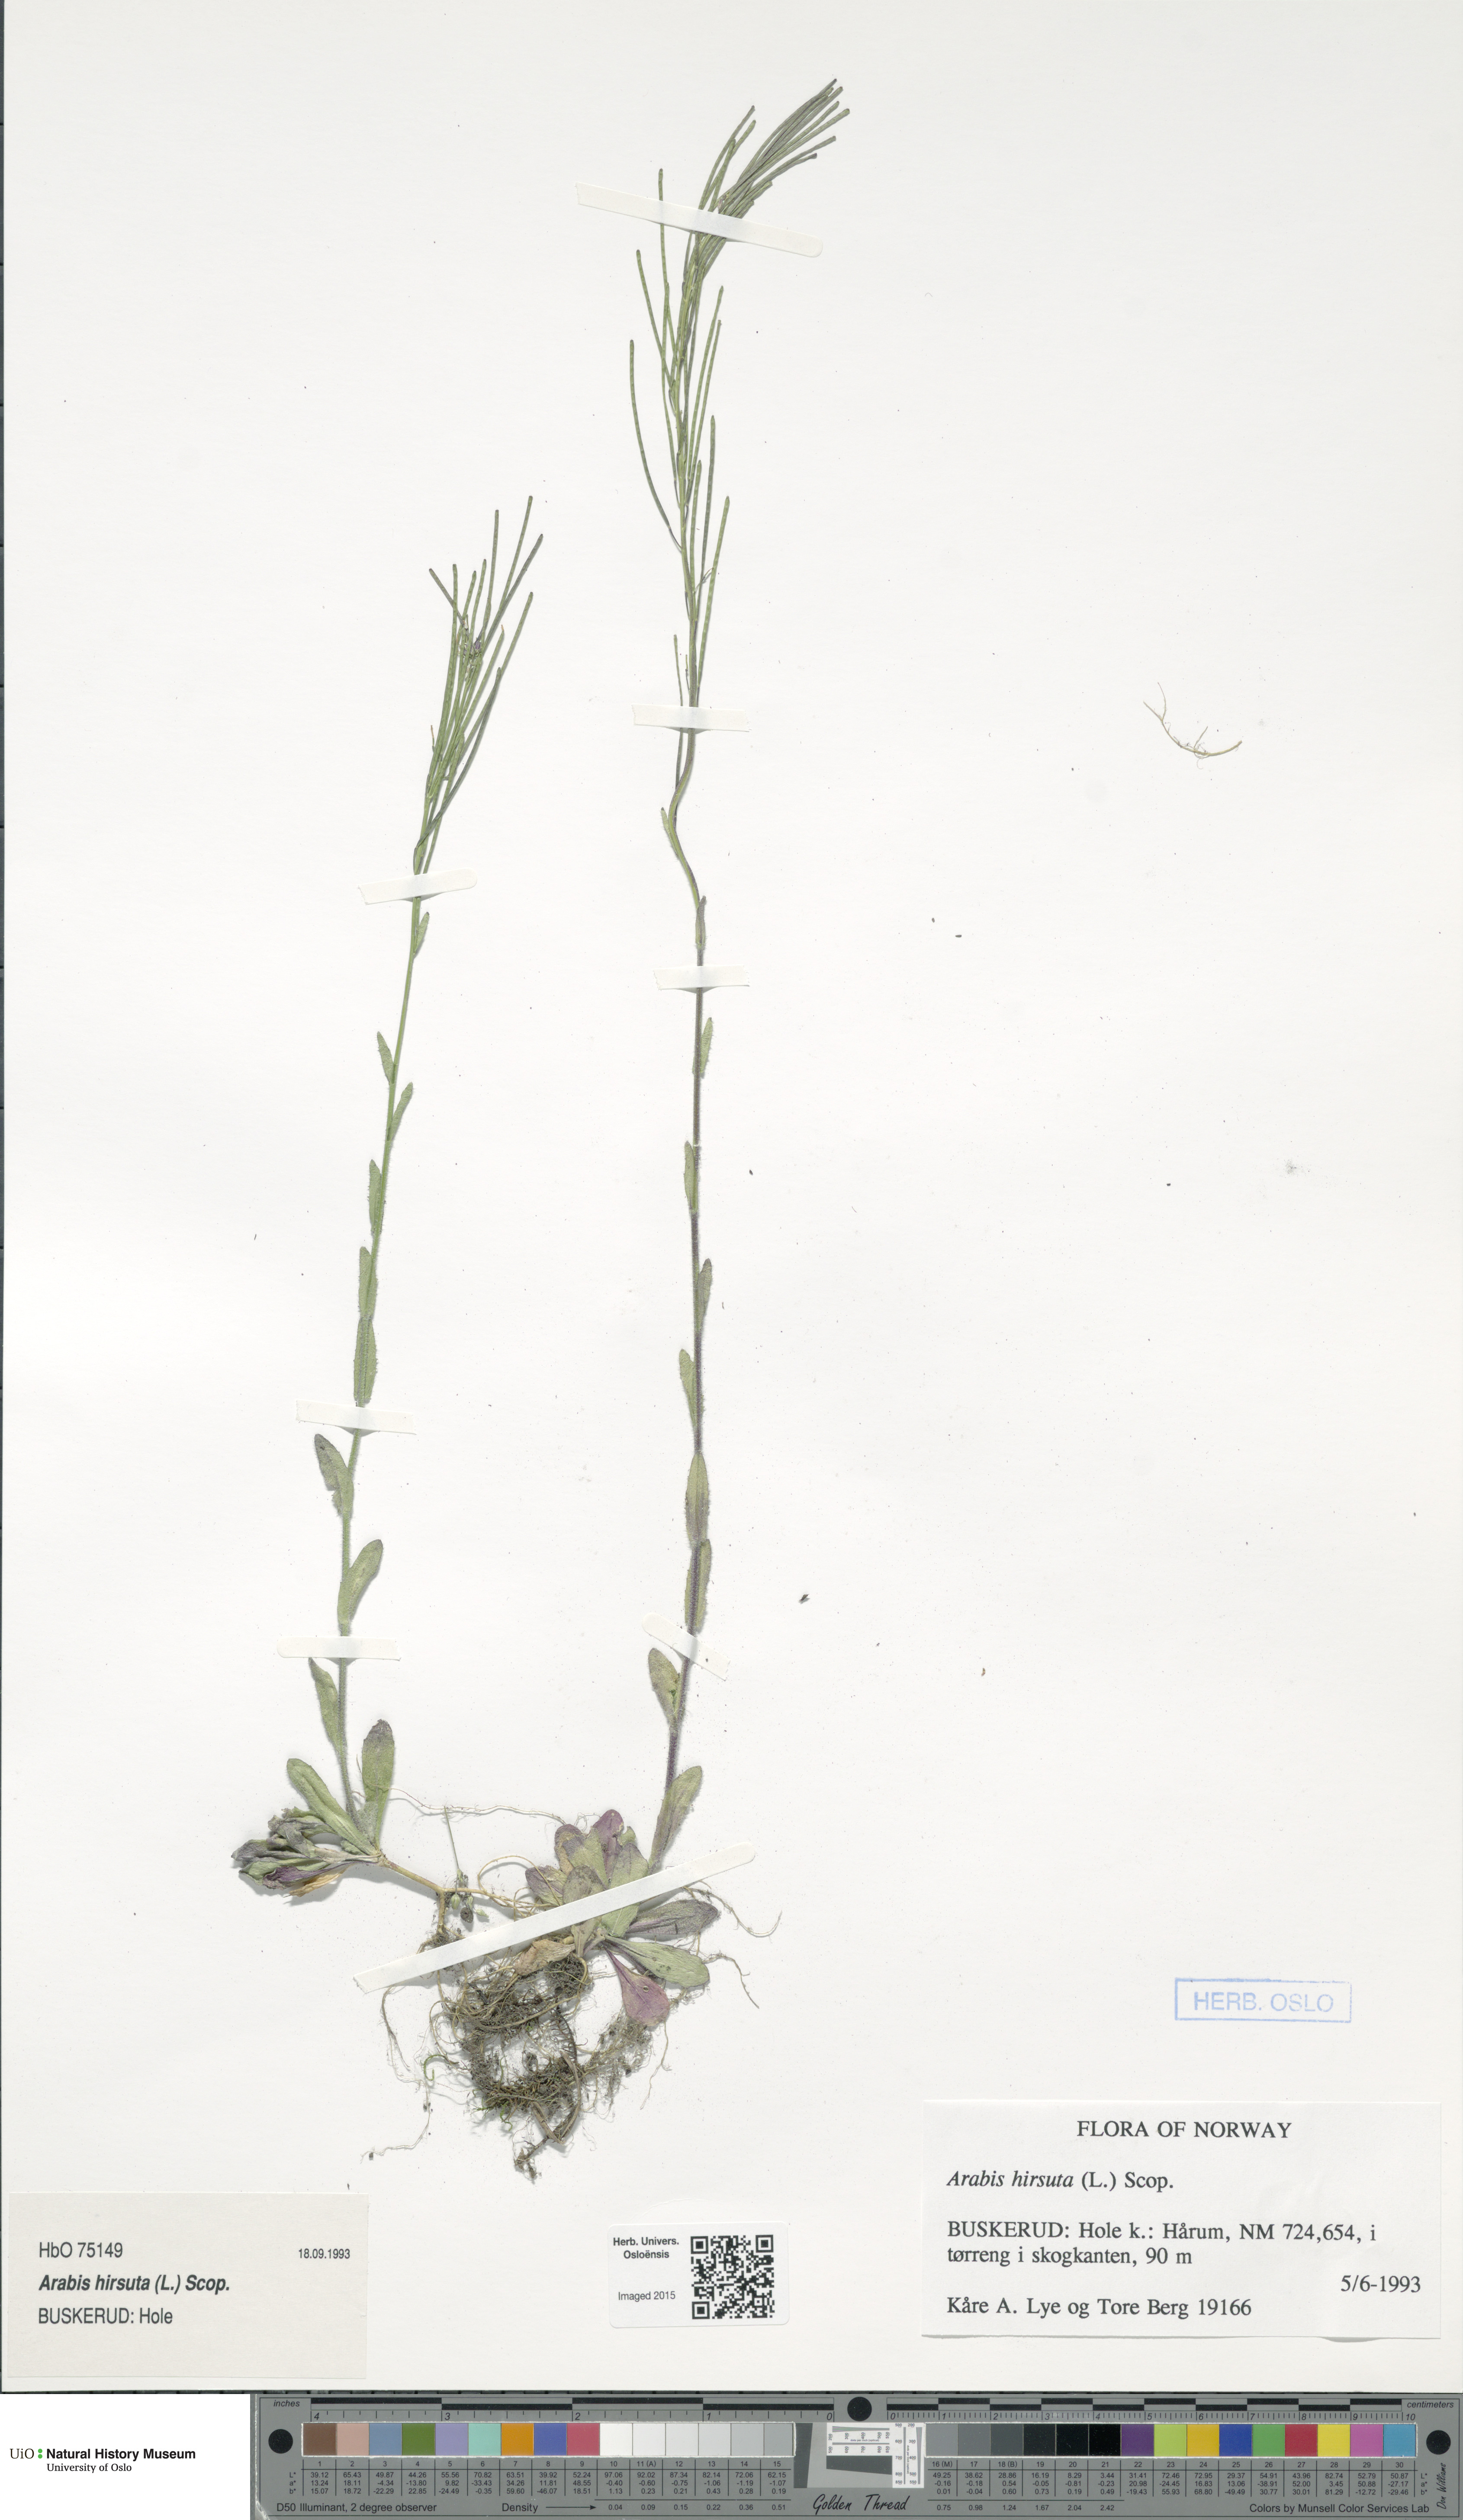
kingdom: Plantae
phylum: Tracheophyta
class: Magnoliopsida
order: Brassicales
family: Brassicaceae
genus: Arabis
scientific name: Arabis hirsuta
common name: Hairy rock-cress
